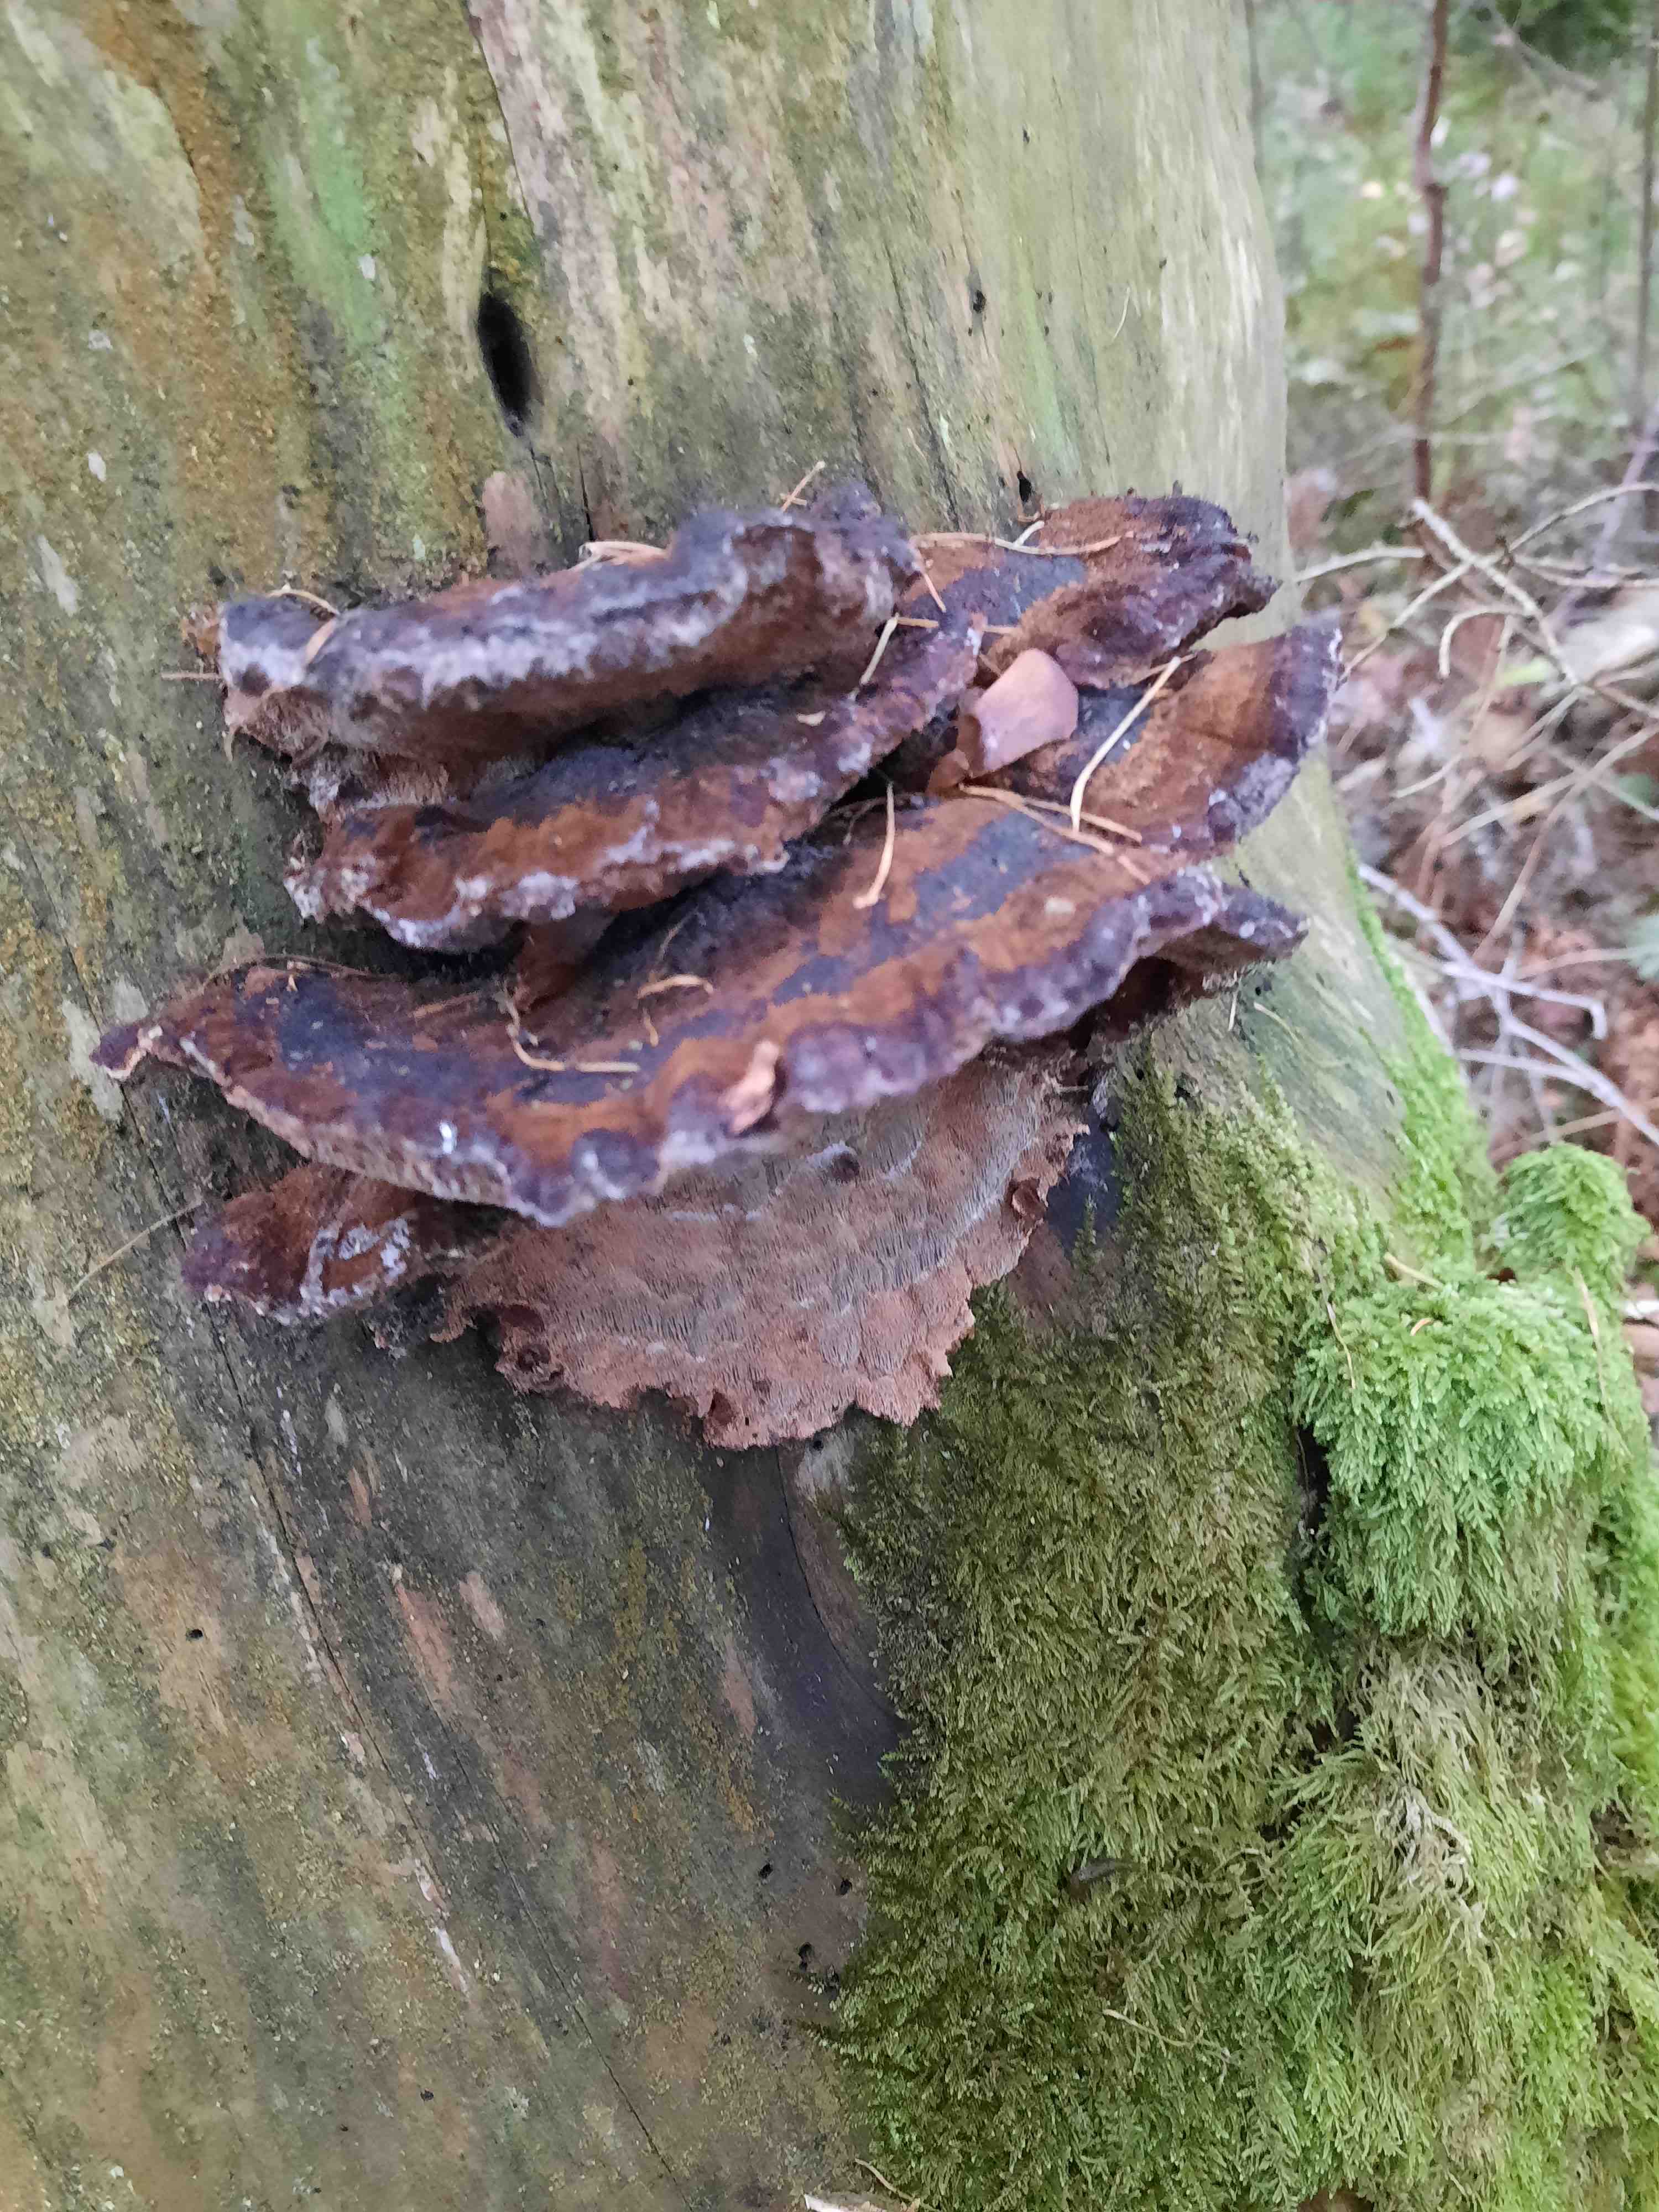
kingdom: Fungi
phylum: Basidiomycota
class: Agaricomycetes
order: Polyporales
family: Ischnodermataceae
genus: Ischnoderma
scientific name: Ischnoderma benzoinum
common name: gran-tjæreporesvamp
